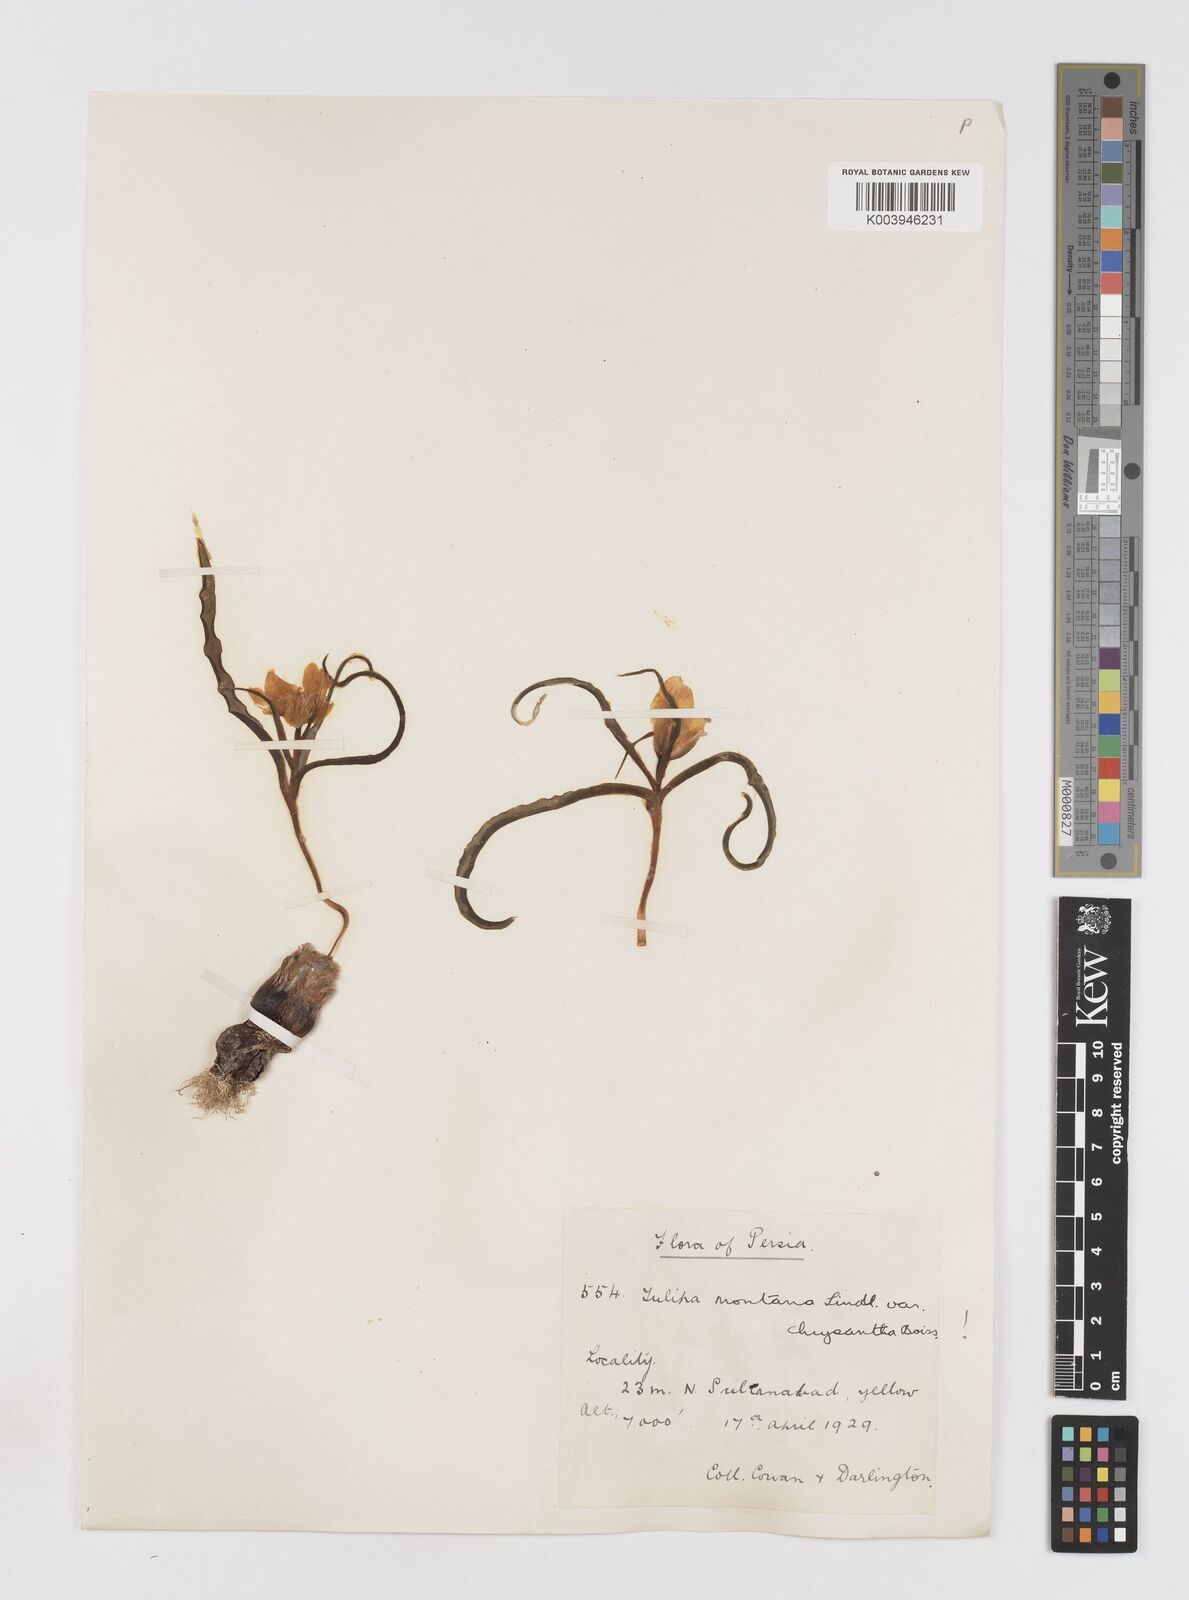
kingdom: Plantae
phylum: Tracheophyta
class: Liliopsida
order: Liliales
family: Liliaceae
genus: Tulipa
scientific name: Tulipa montana
